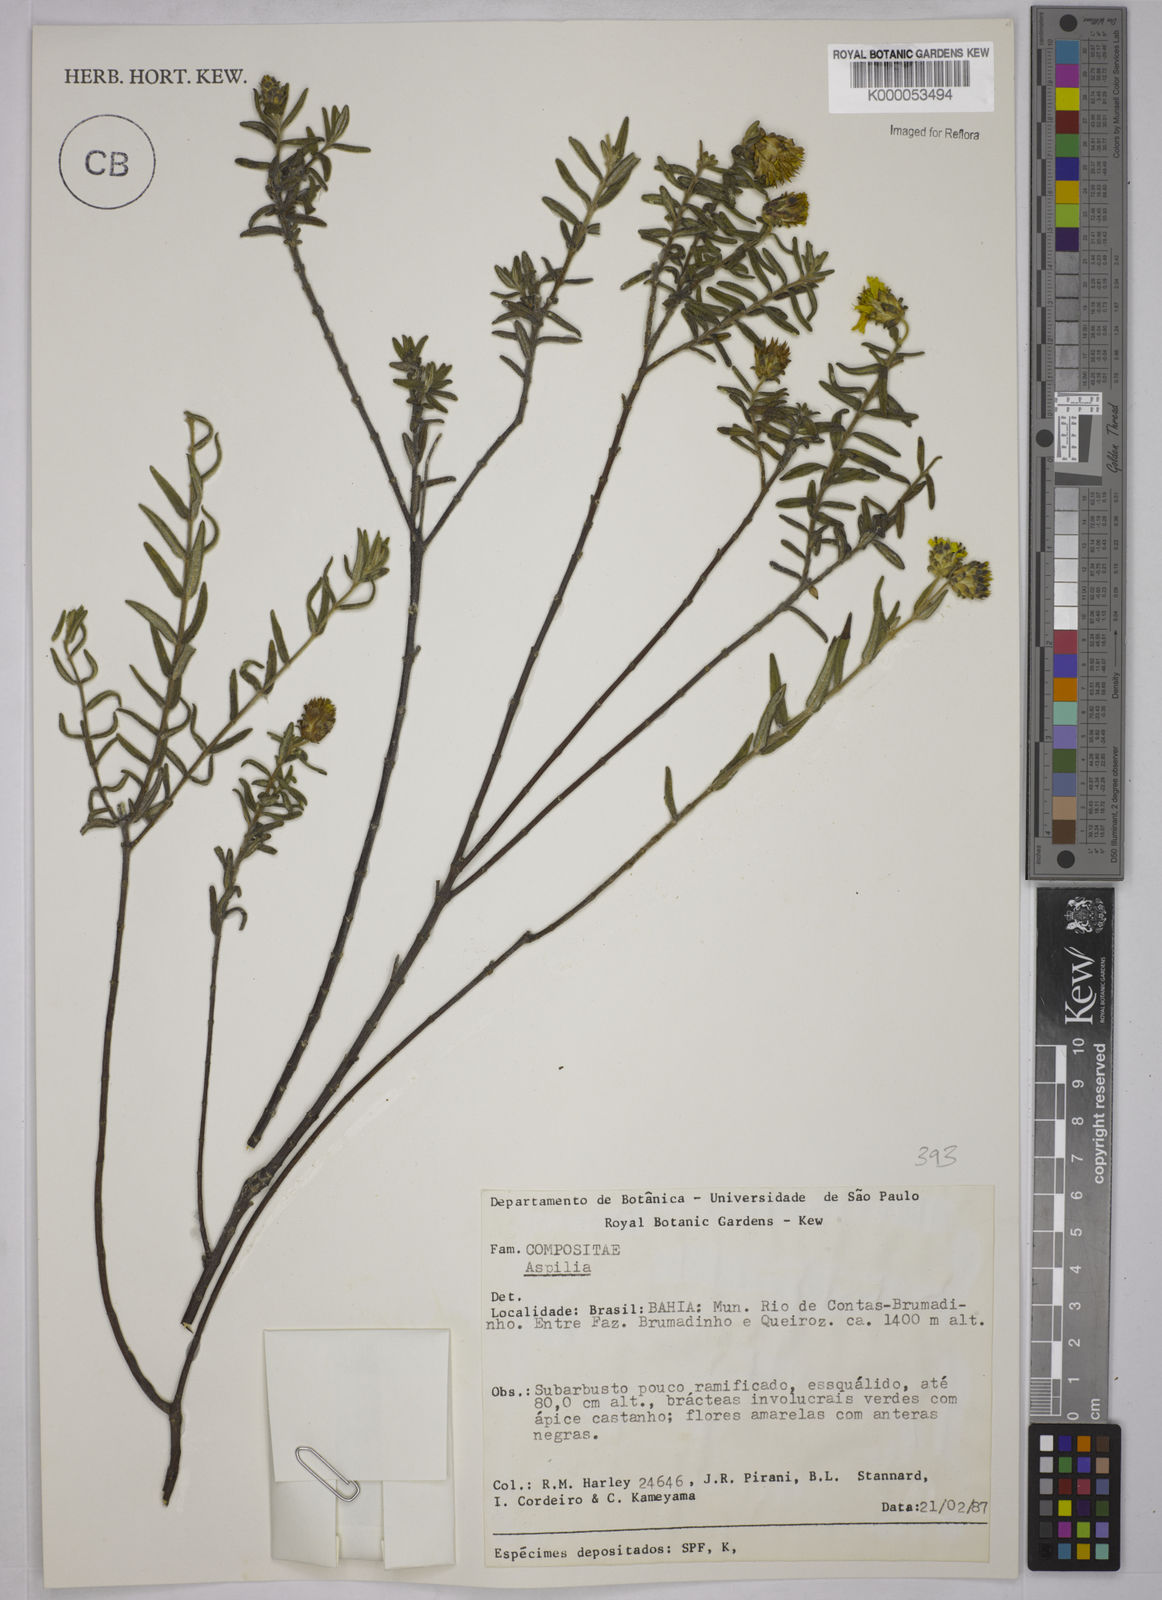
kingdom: Plantae
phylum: Tracheophyta
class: Magnoliopsida
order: Asterales
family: Asteraceae
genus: Aspilia
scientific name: Aspilia foliosa
